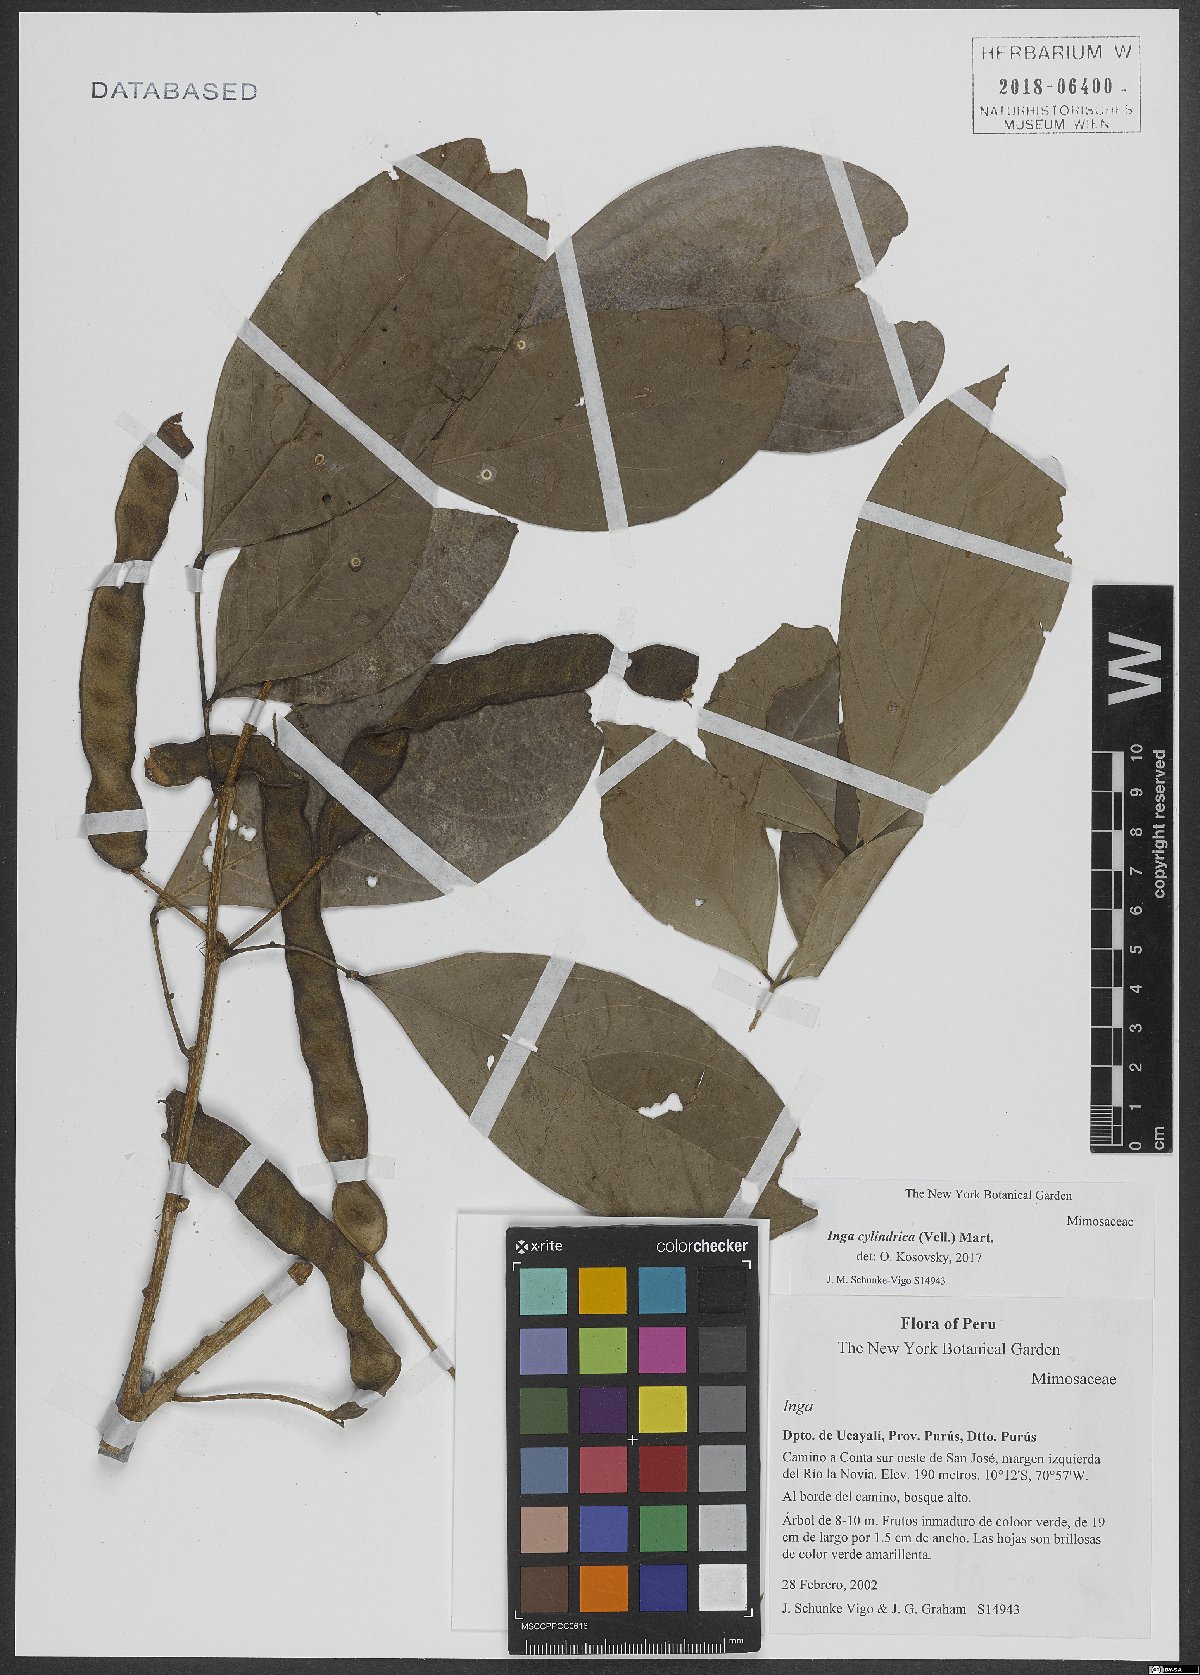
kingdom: Plantae
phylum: Tracheophyta
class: Magnoliopsida
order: Fabales
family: Fabaceae
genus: Inga
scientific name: Inga cylindrica
